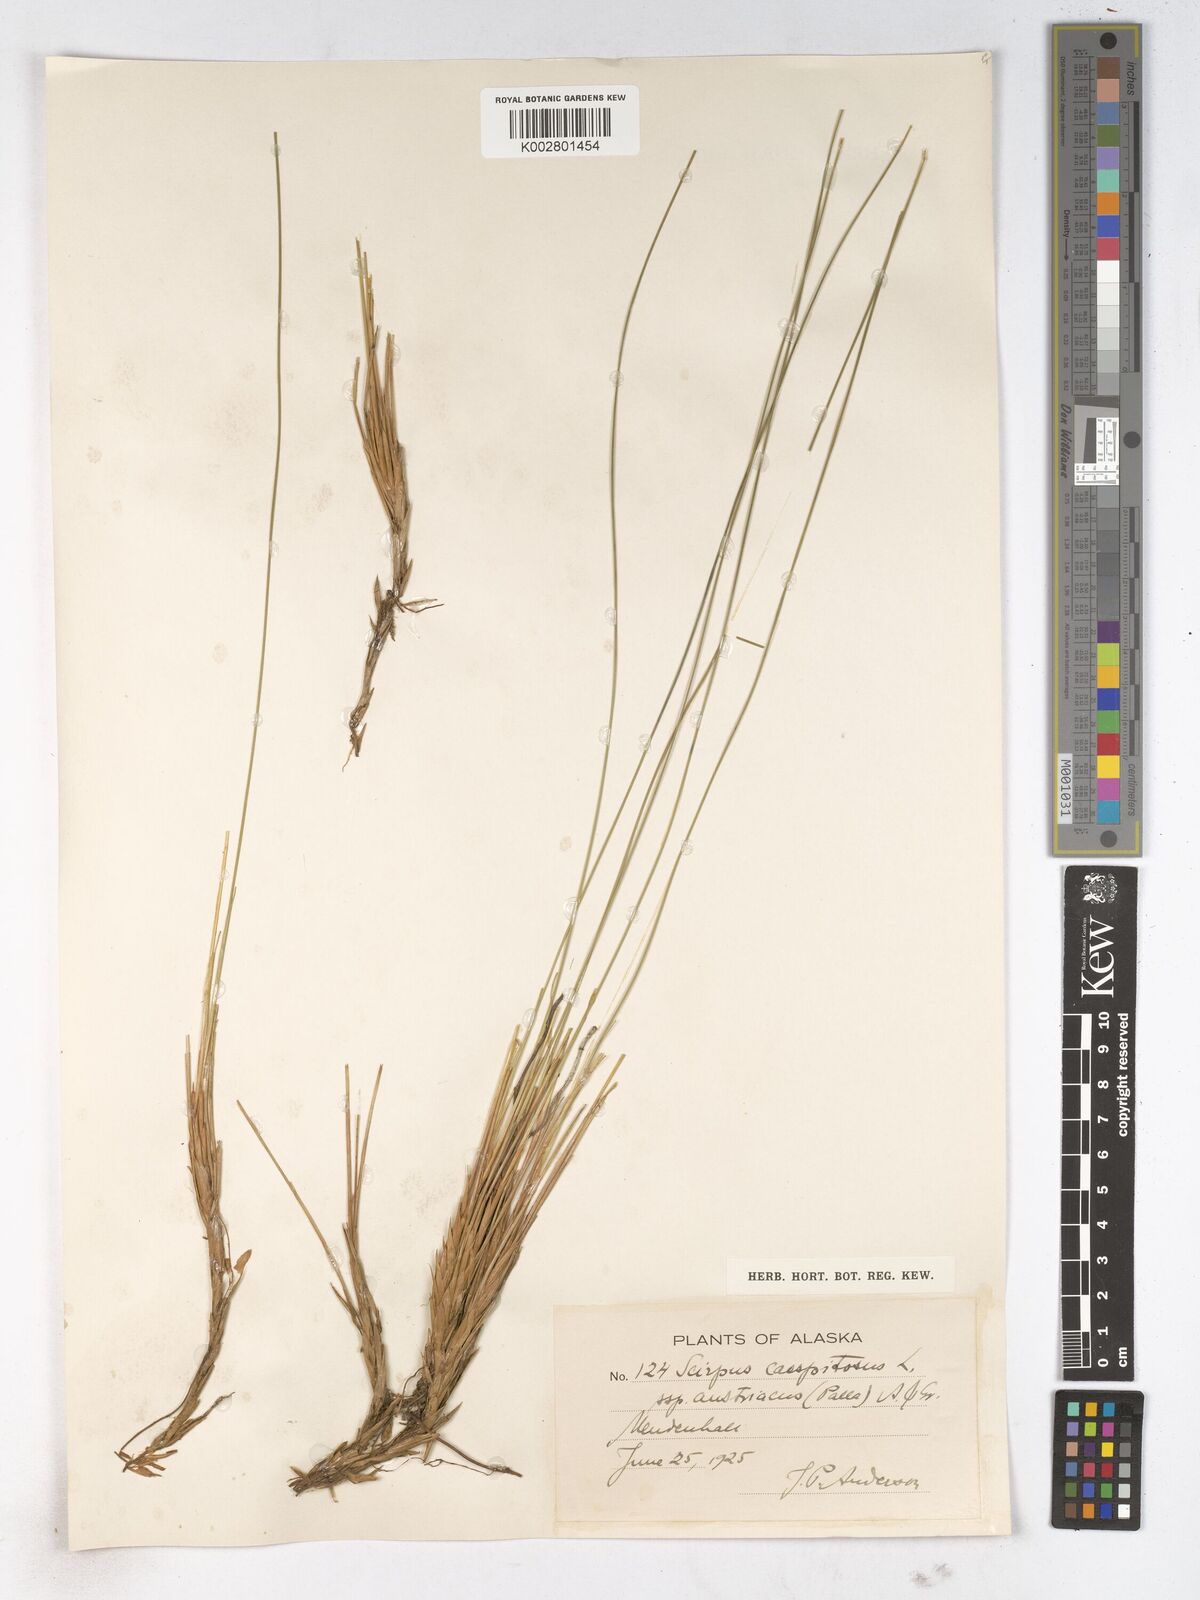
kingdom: Plantae
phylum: Tracheophyta
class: Liliopsida
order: Poales
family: Cyperaceae
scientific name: Cyperaceae
